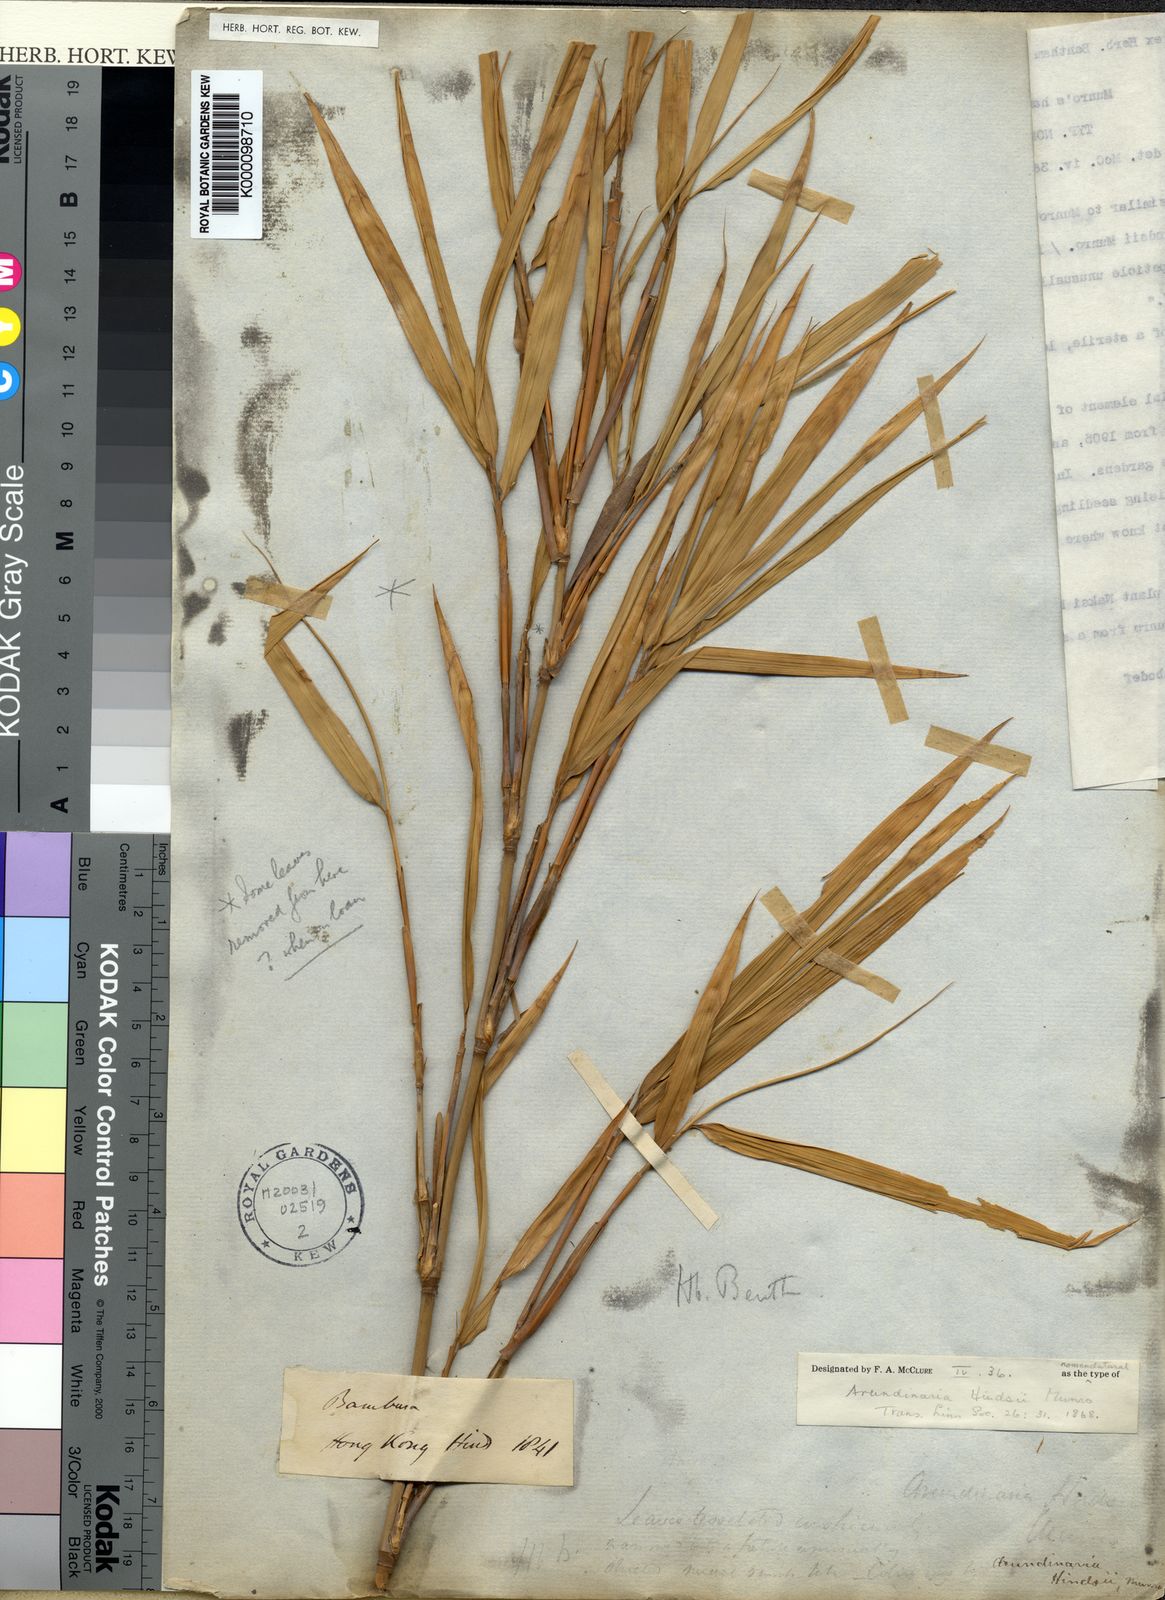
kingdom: Plantae
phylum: Tracheophyta
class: Liliopsida
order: Poales
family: Poaceae
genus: Pseudosasa
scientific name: Pseudosasa hindsii
